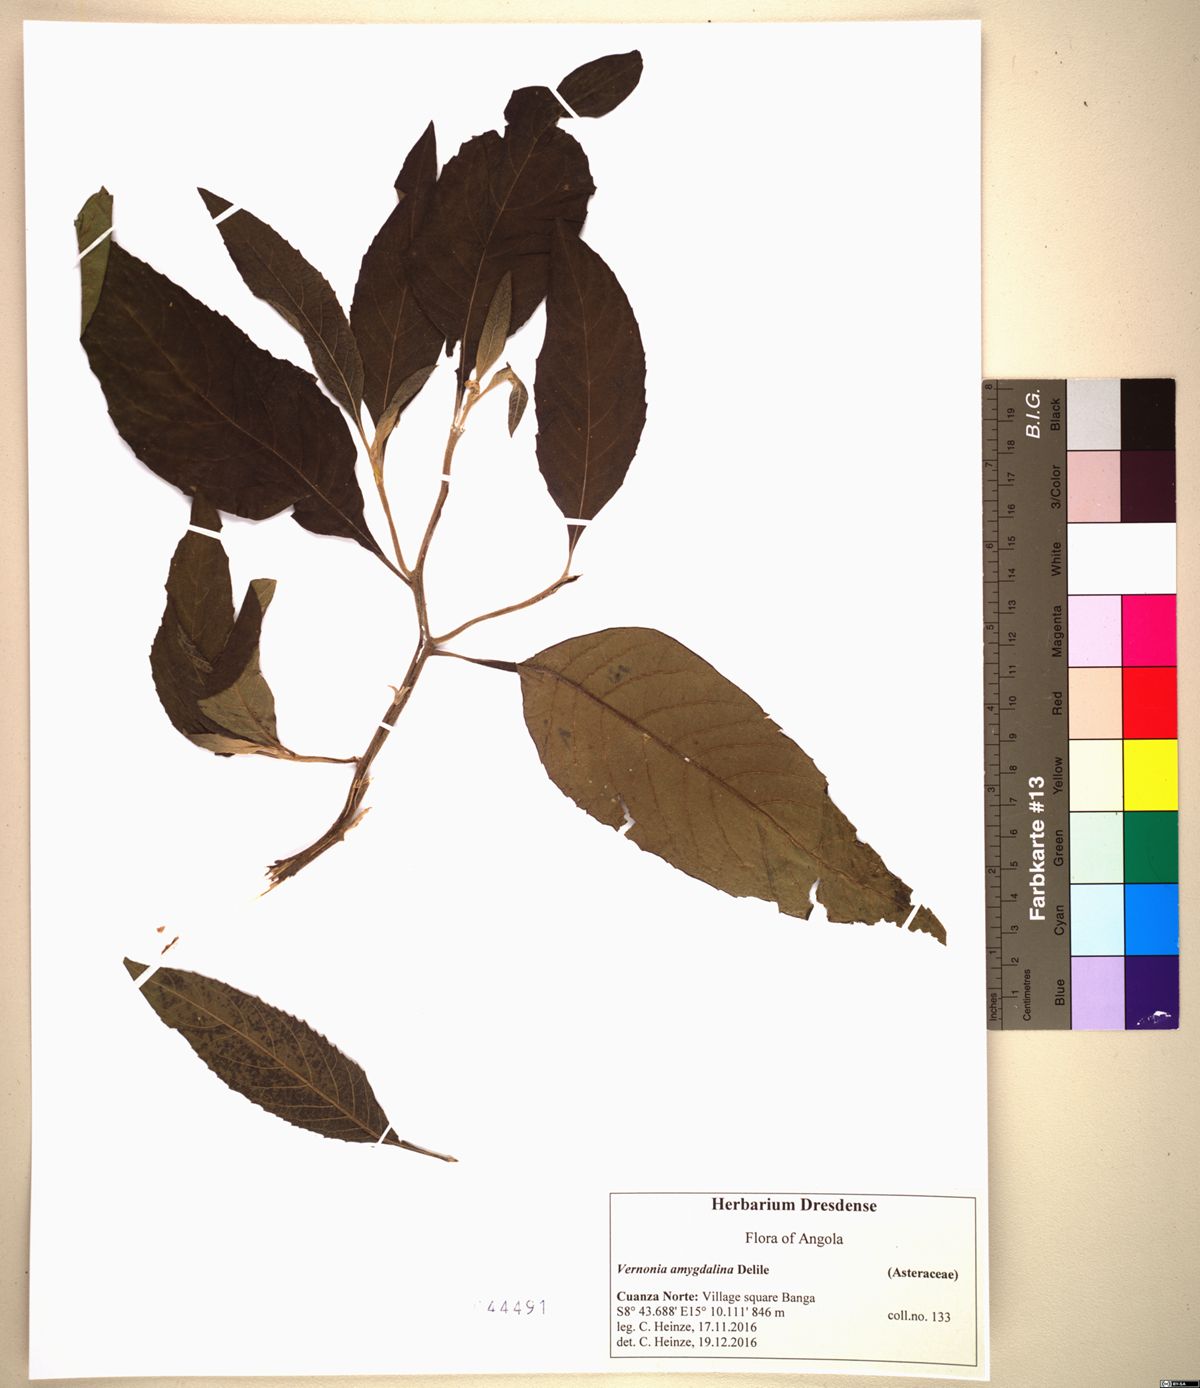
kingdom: Plantae
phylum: Tracheophyta
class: Magnoliopsida
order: Asterales
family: Asteraceae
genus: Gymnanthemum
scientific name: Gymnanthemum amygdalinum
